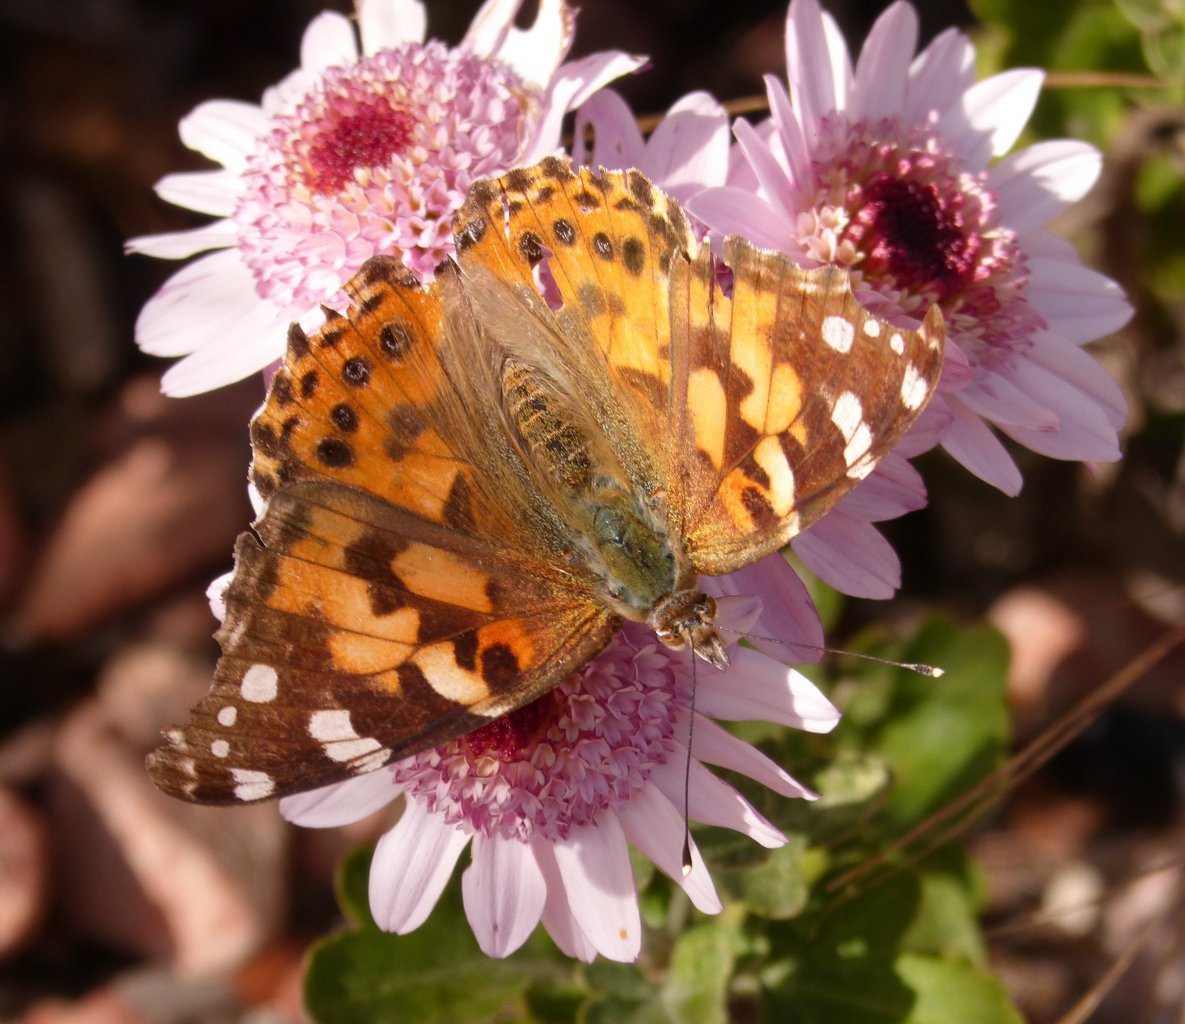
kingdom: Animalia
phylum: Arthropoda
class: Insecta
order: Lepidoptera
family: Nymphalidae
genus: Vanessa
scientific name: Vanessa cardui
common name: Painted Lady
